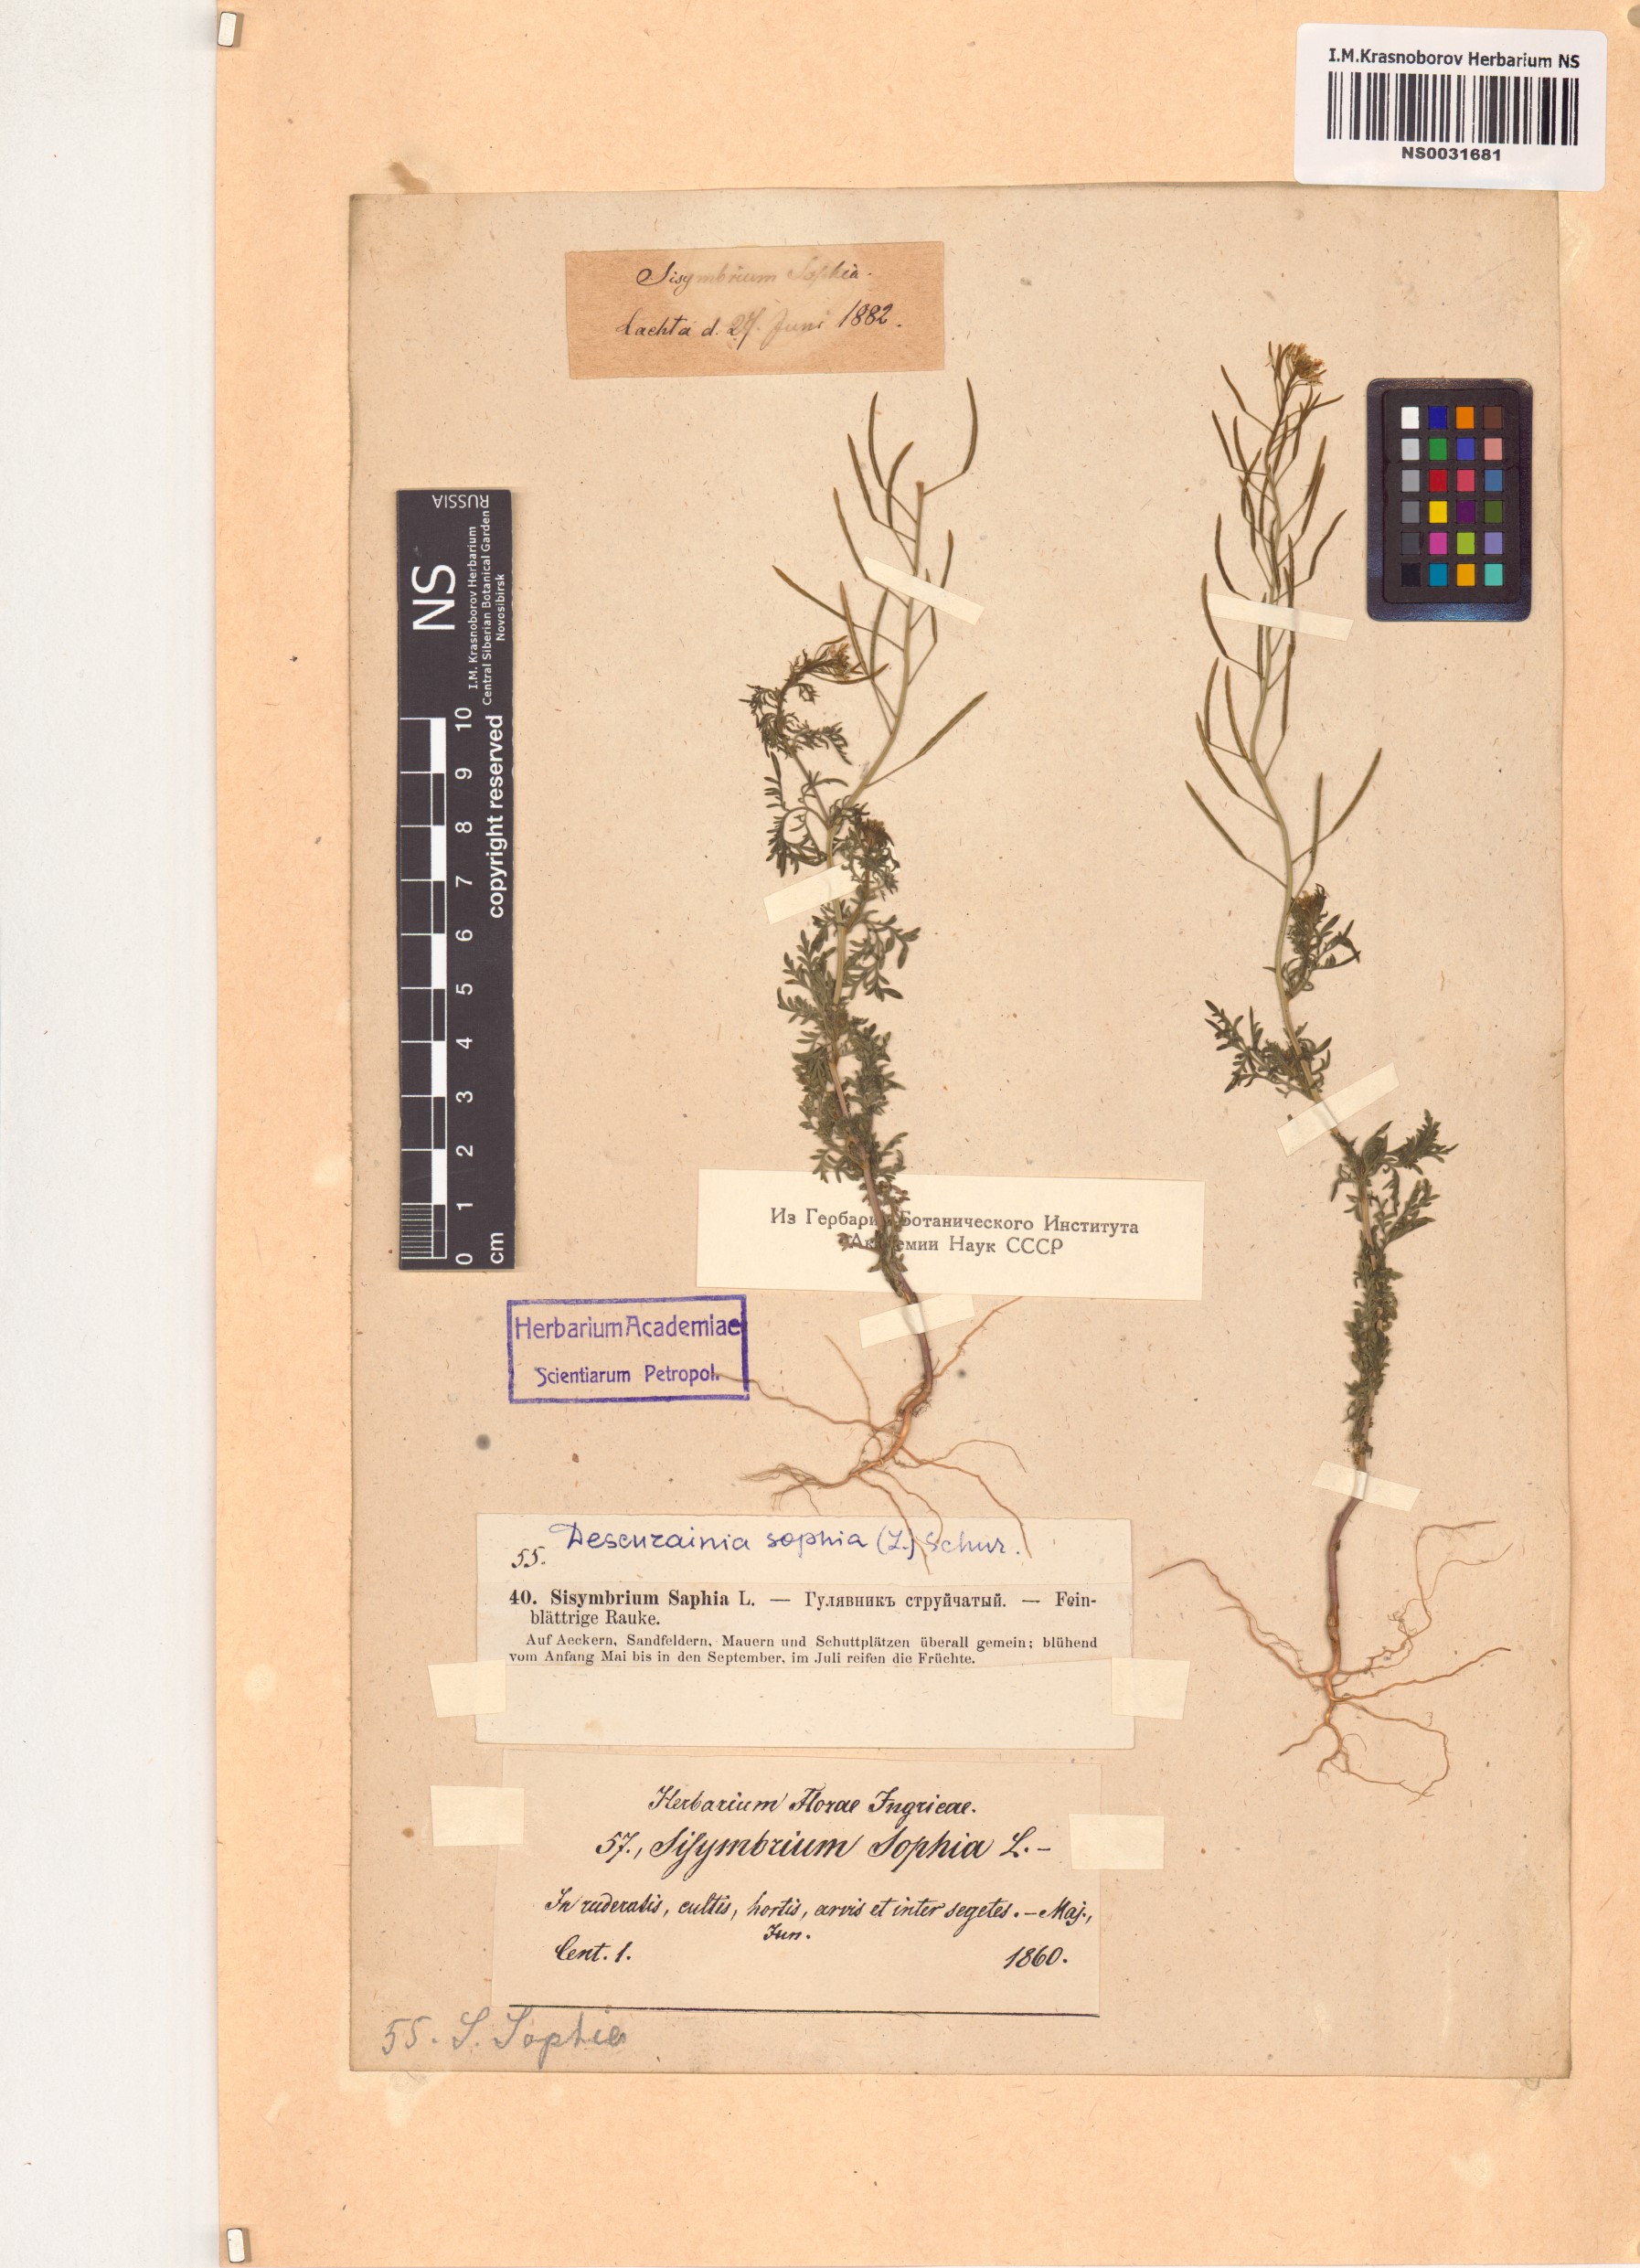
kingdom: Plantae
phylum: Tracheophyta
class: Magnoliopsida
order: Brassicales
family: Brassicaceae
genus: Descurainia
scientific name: Descurainia sophia
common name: Flixweed
